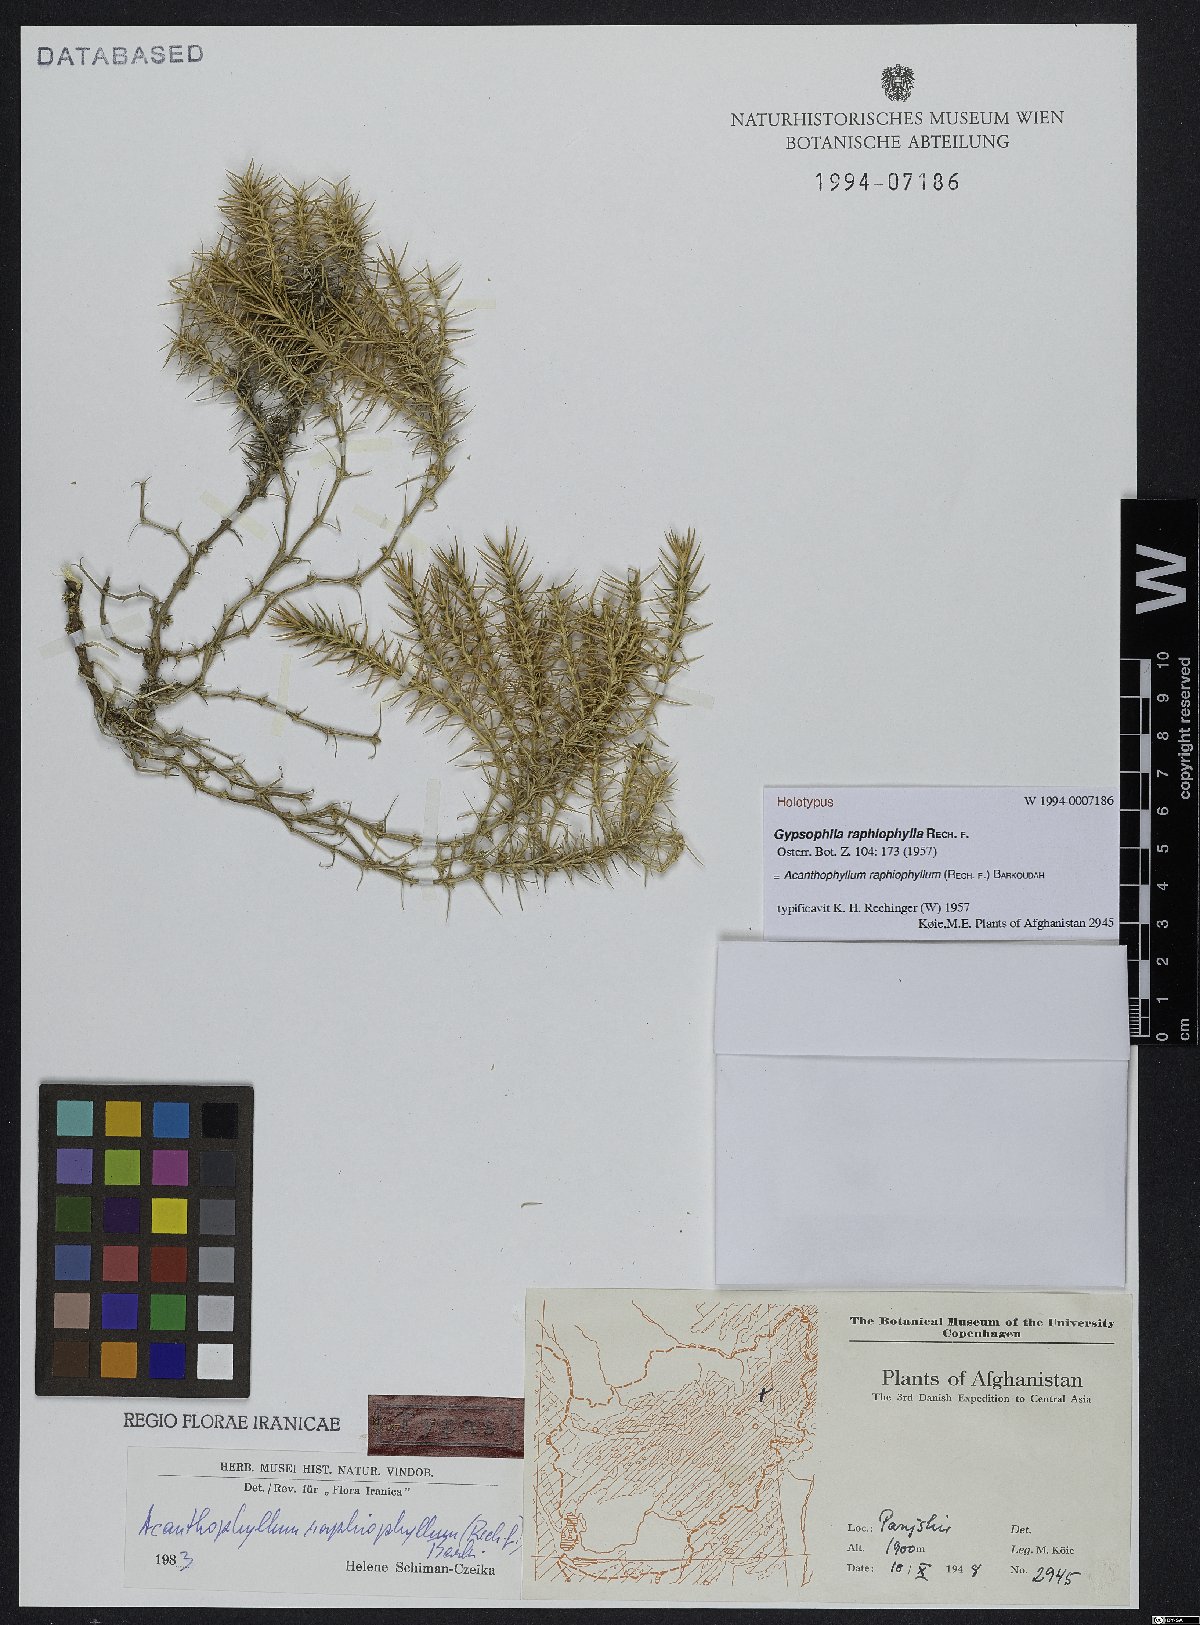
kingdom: Plantae
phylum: Tracheophyta
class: Magnoliopsida
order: Caryophyllales
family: Caryophyllaceae
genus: Acanthophyllum
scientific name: Acanthophyllum raphiophyllum
